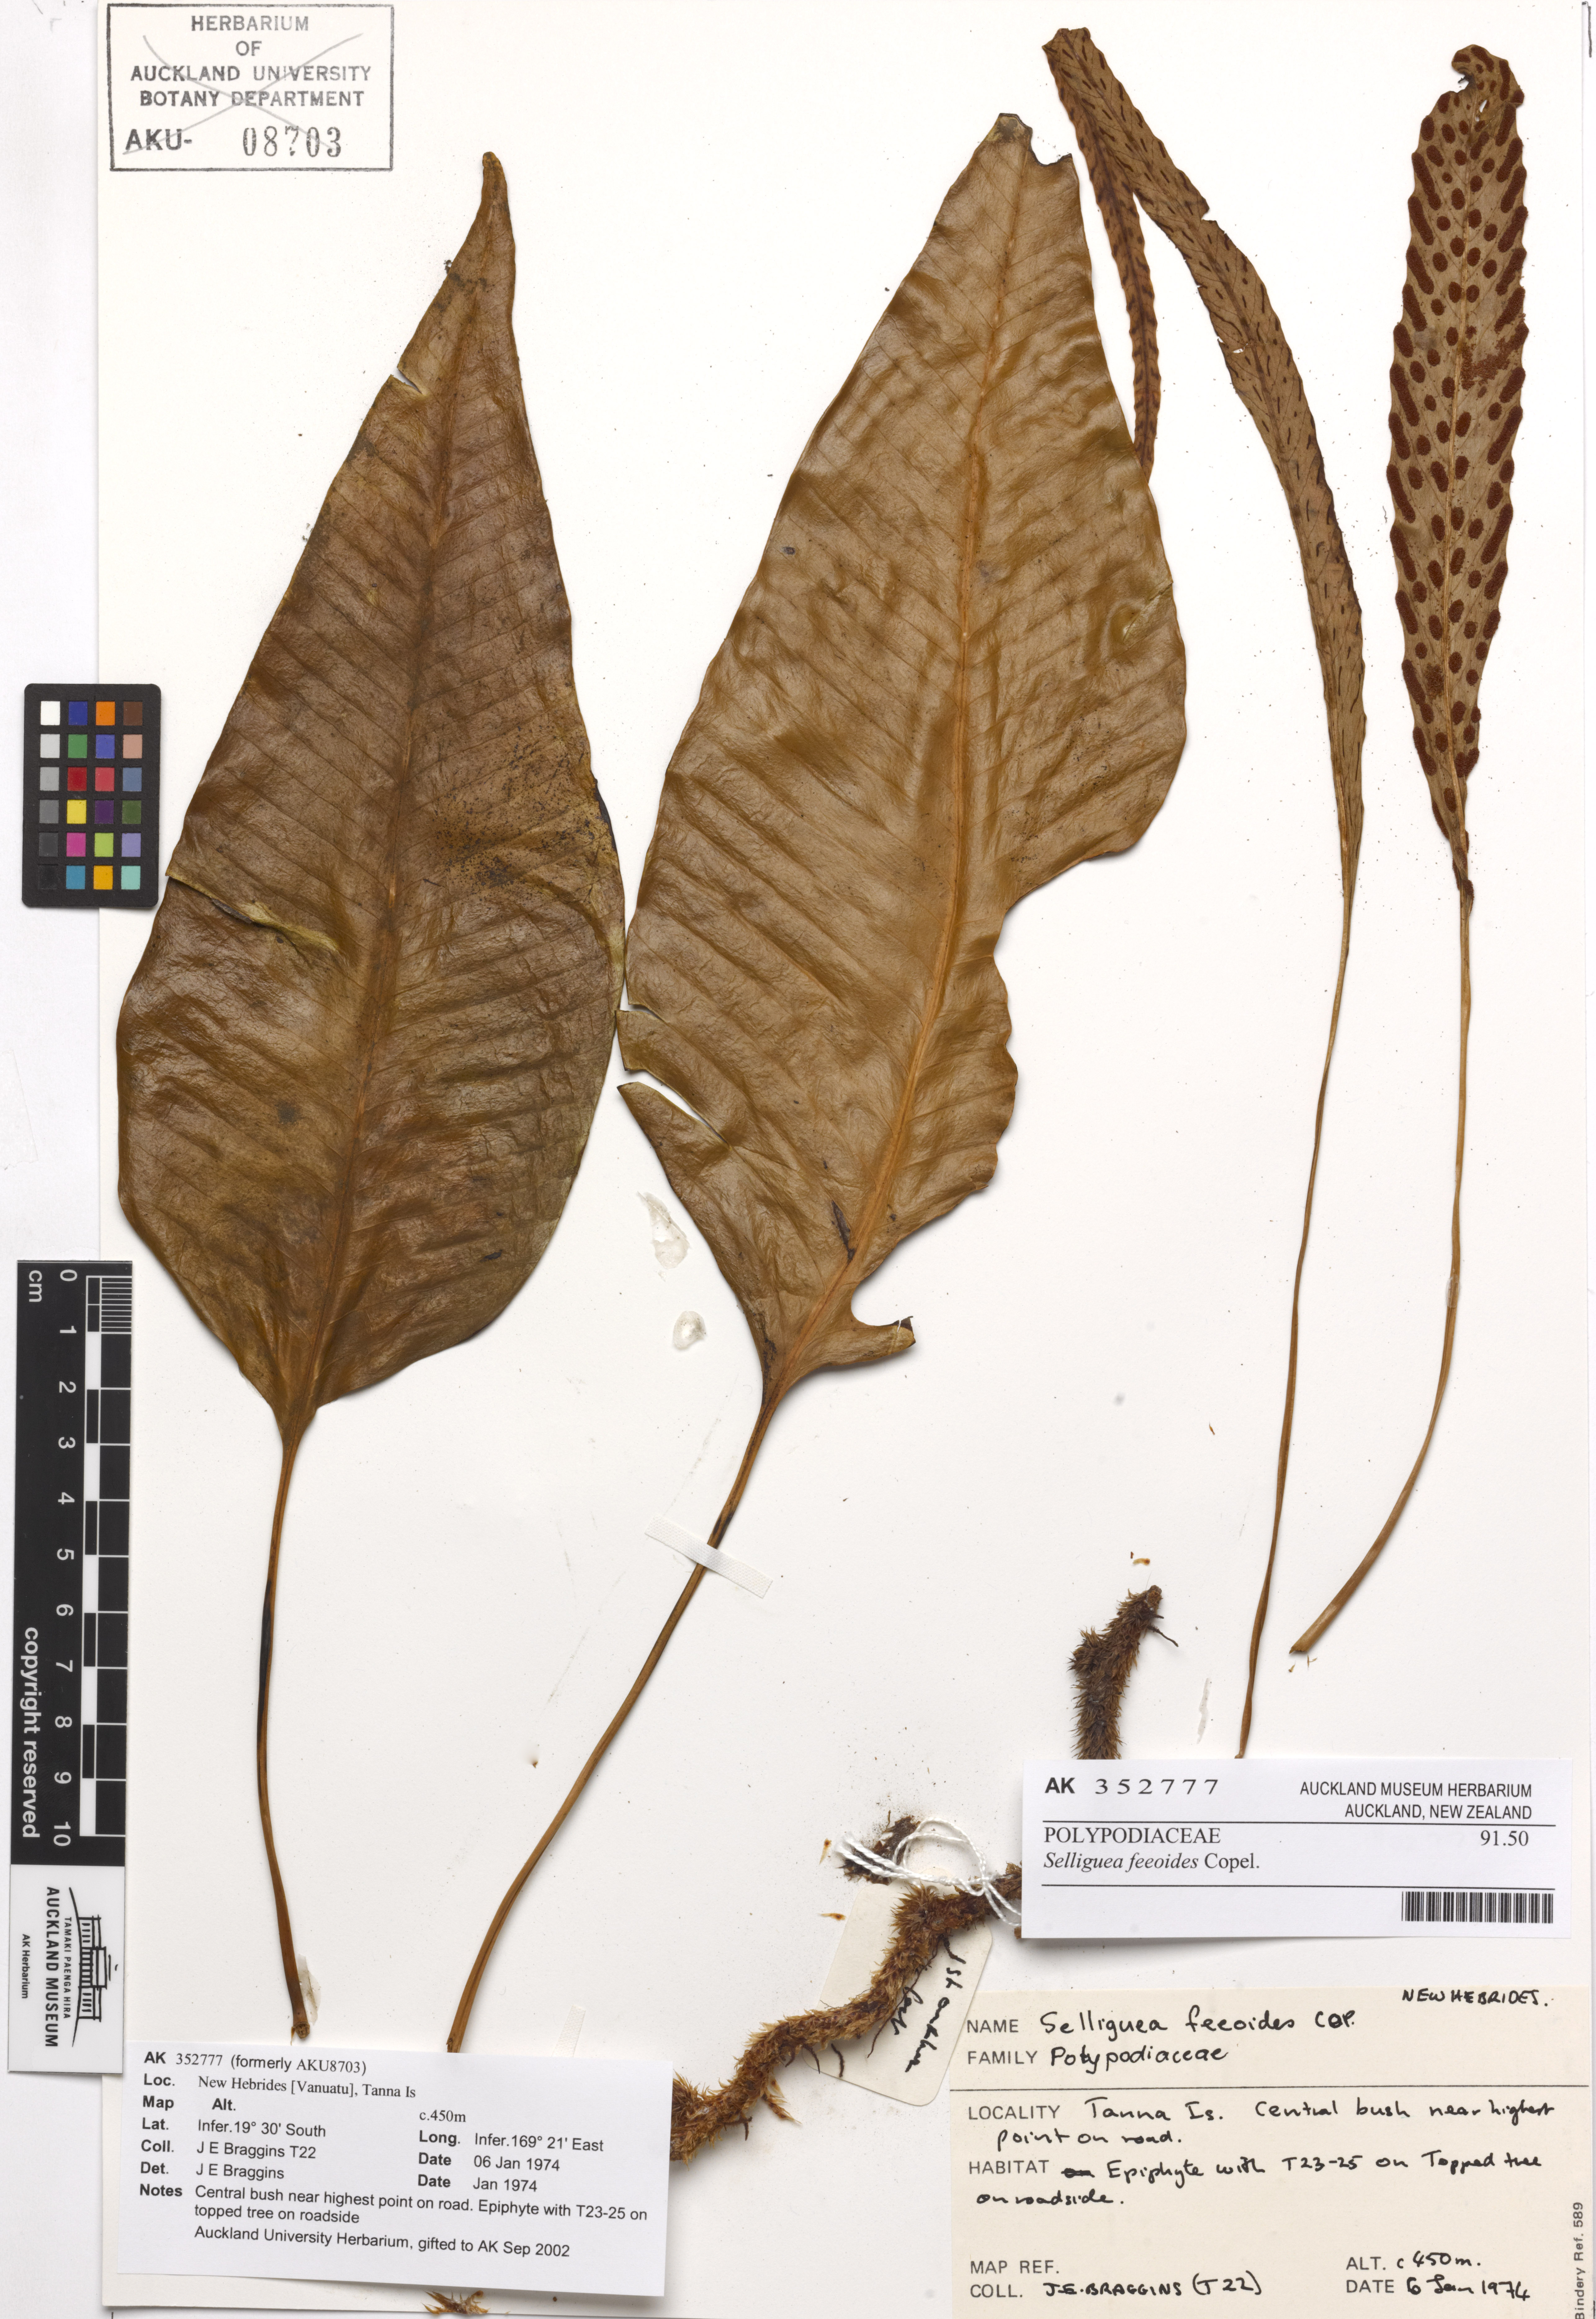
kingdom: Plantae
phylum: Tracheophyta
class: Polypodiopsida
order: Polypodiales
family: Polypodiaceae
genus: Selliguea
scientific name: Selliguea feeioides
